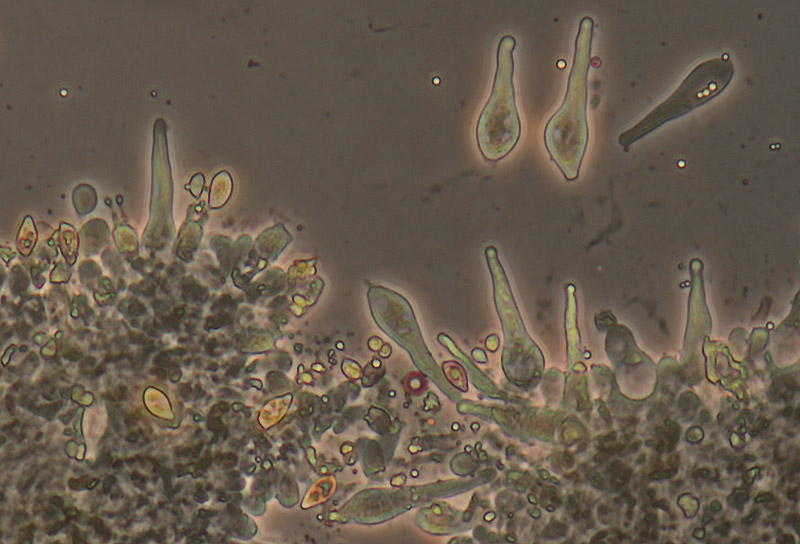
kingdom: Fungi
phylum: Basidiomycota
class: Agaricomycetes
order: Agaricales
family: Hymenogastraceae
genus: Galerina
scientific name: Galerina atkinsoniana
